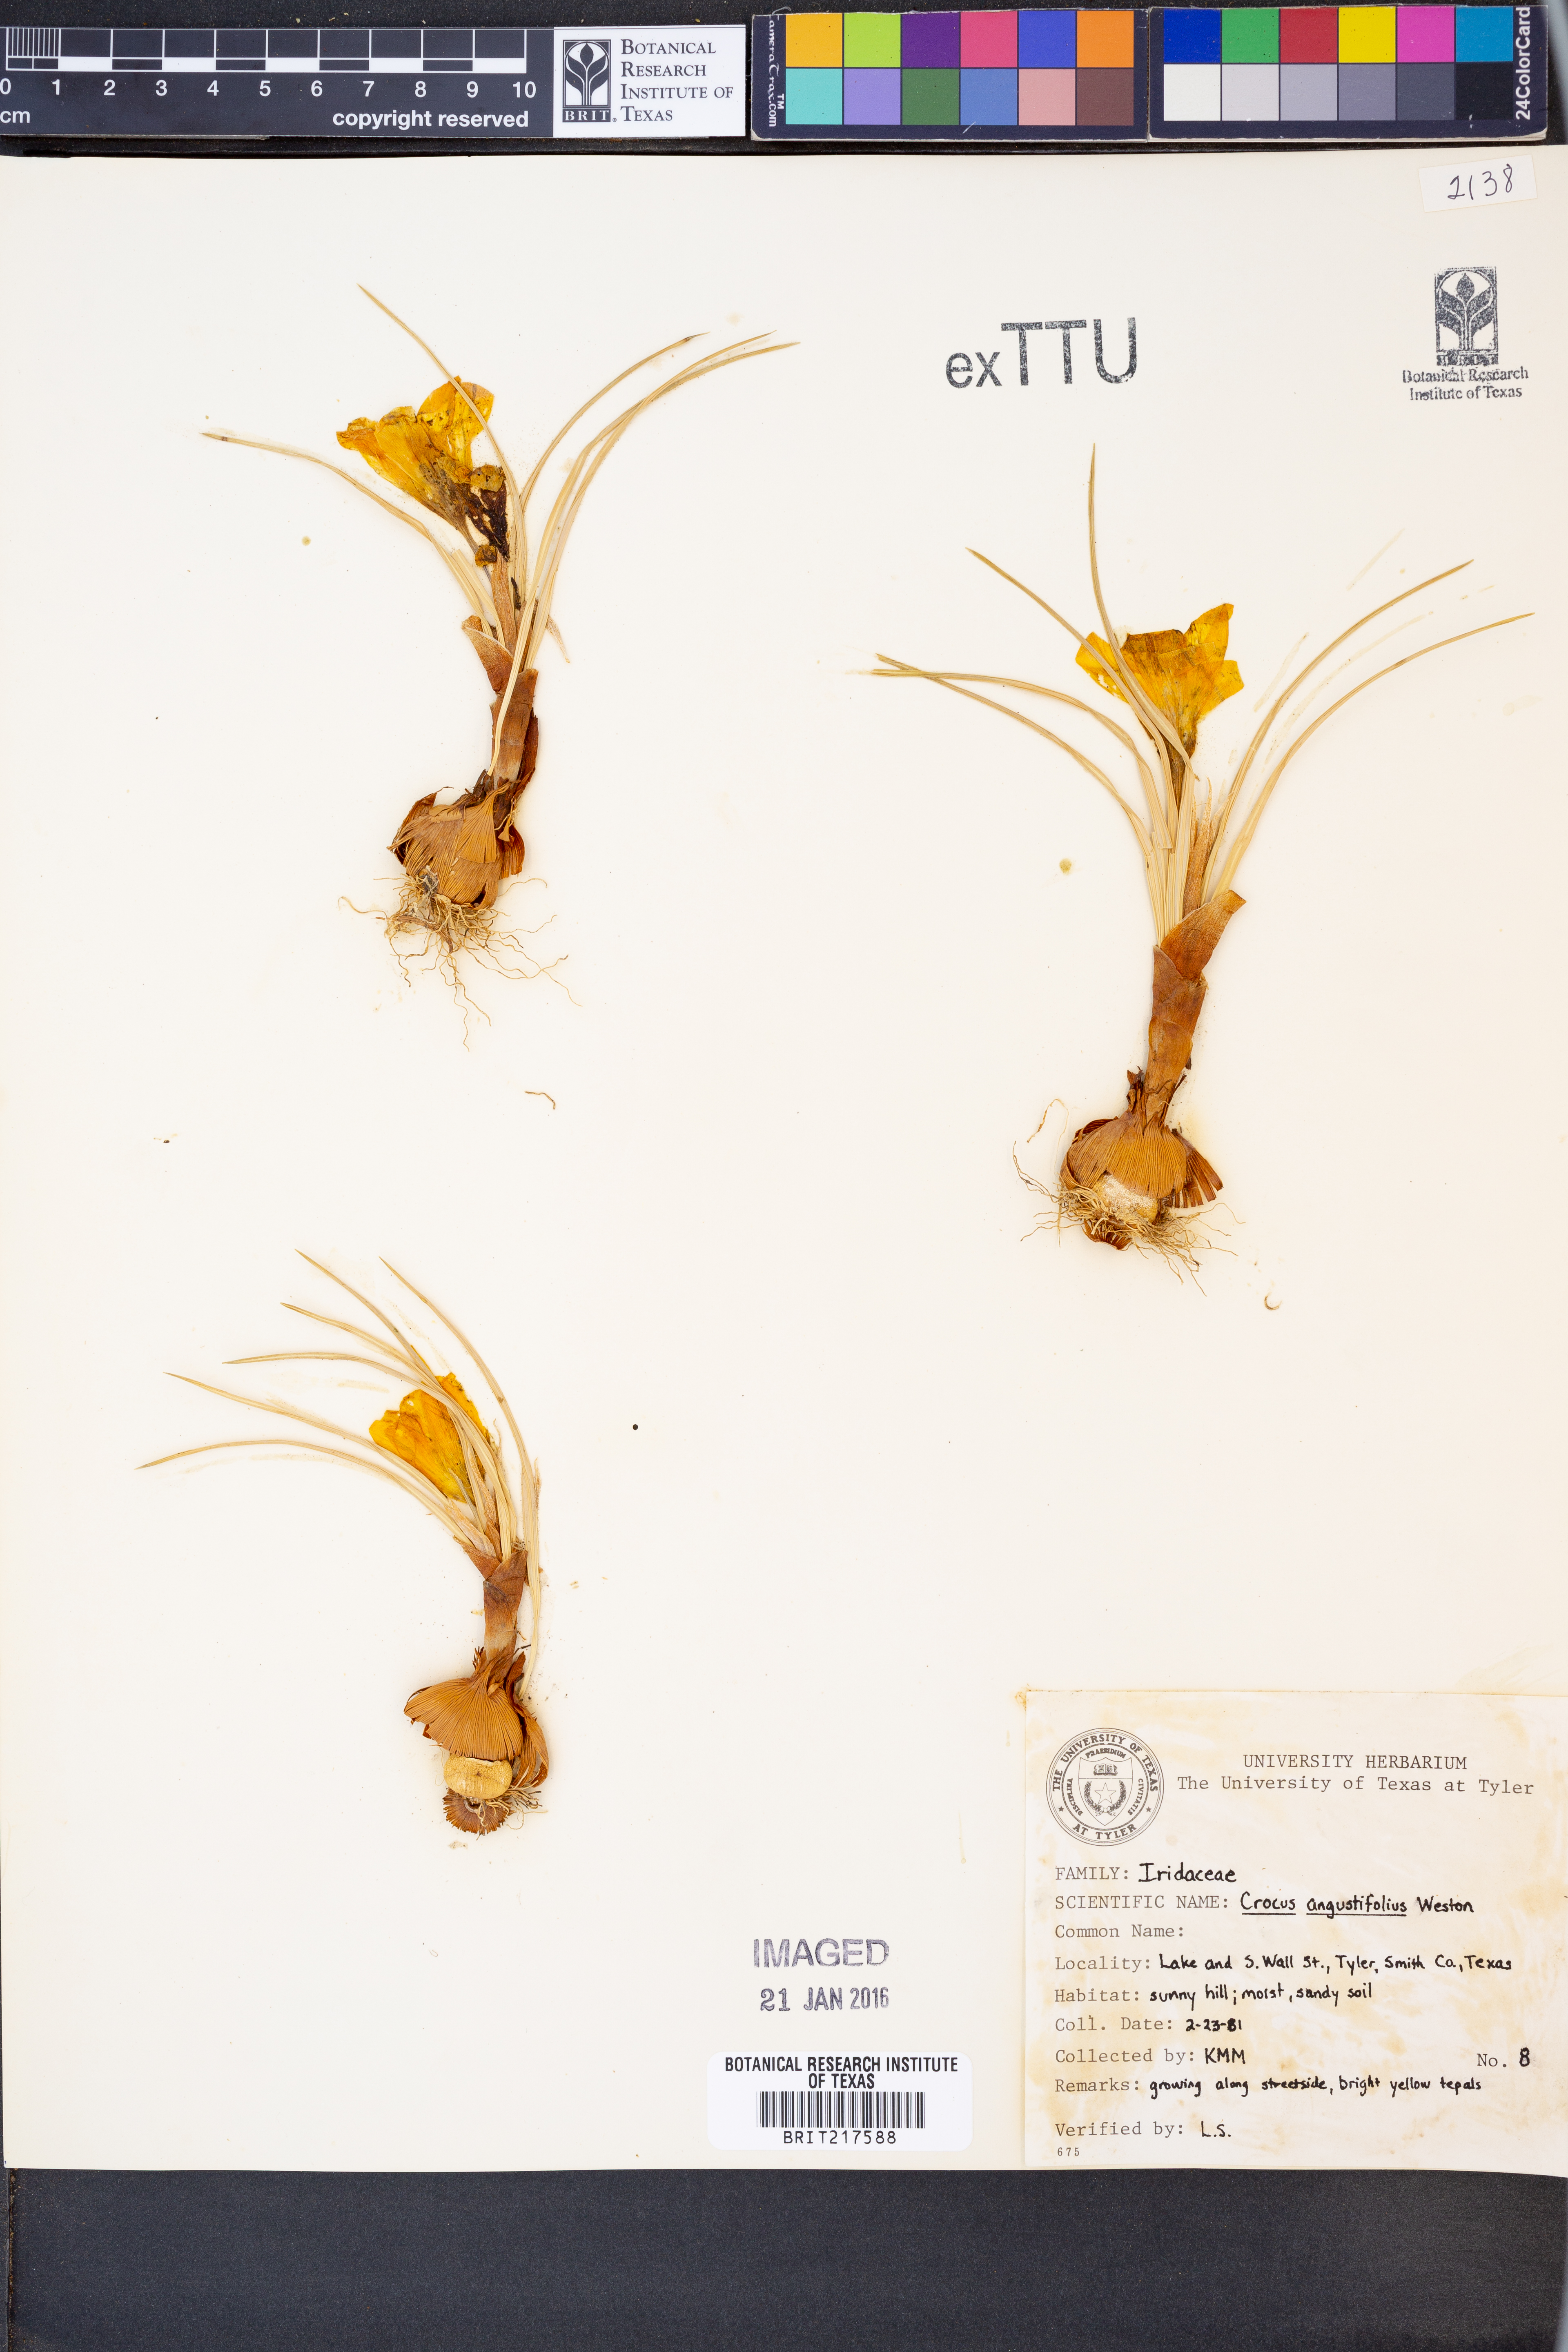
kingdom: Plantae
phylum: Tracheophyta
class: Liliopsida
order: Asparagales
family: Iridaceae
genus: Crocus
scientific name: Crocus angustifolius
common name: Cloth of gold
